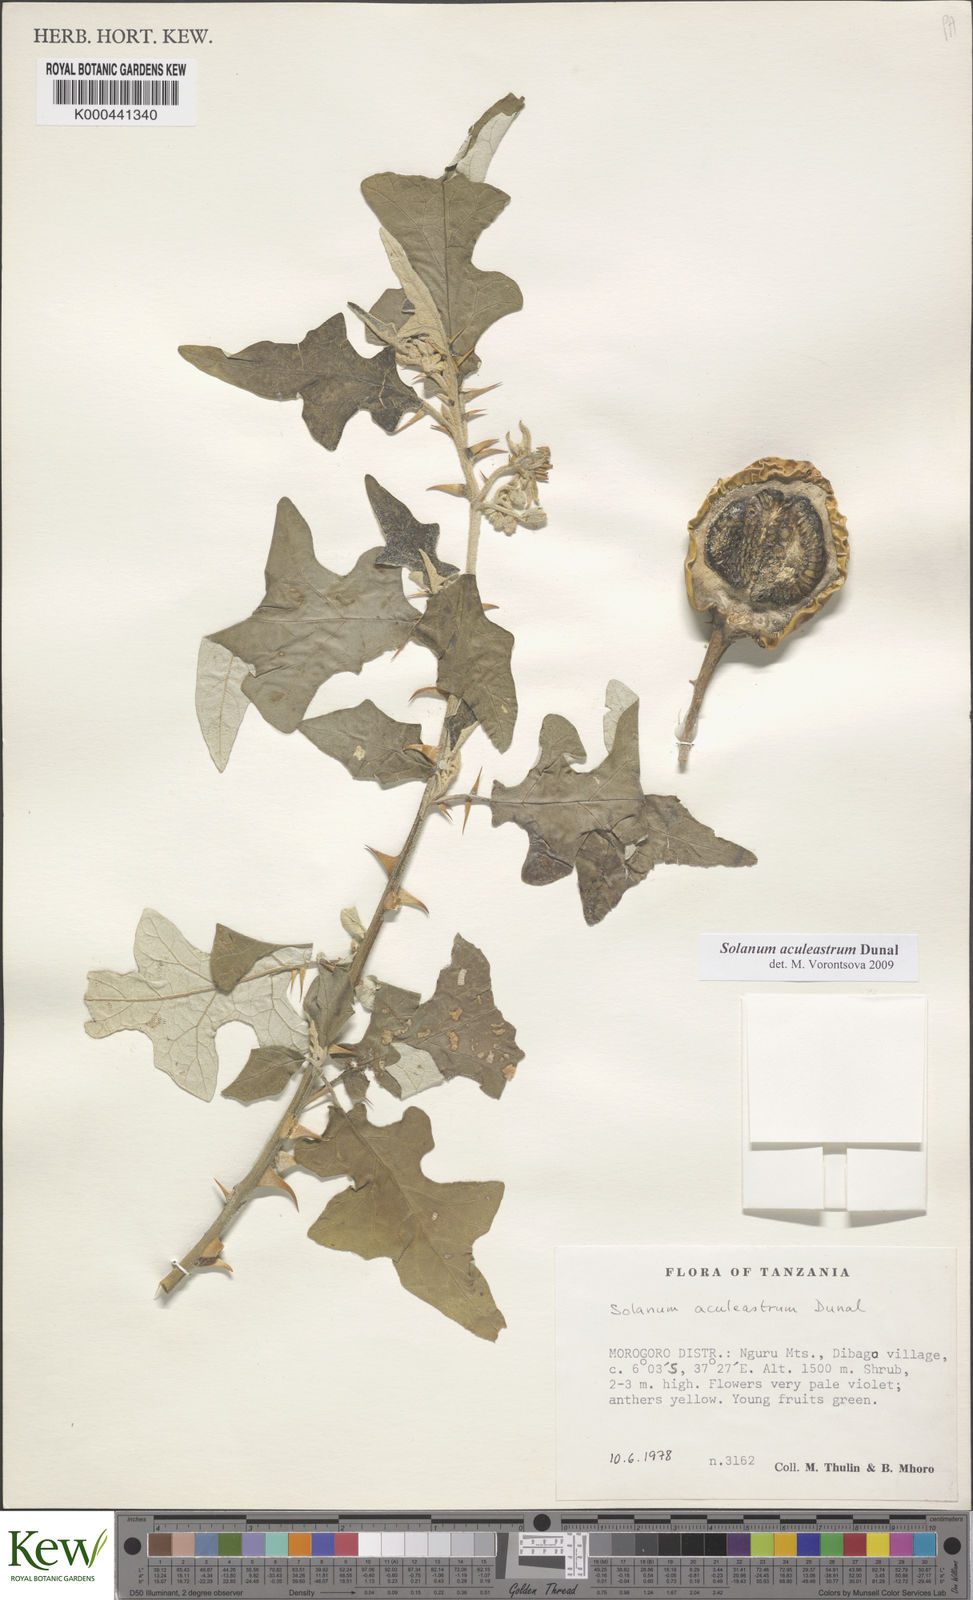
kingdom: Plantae
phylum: Tracheophyta
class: Magnoliopsida
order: Solanales
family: Solanaceae
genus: Solanum
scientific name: Solanum aculeastrum
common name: Goat bitter-apple
